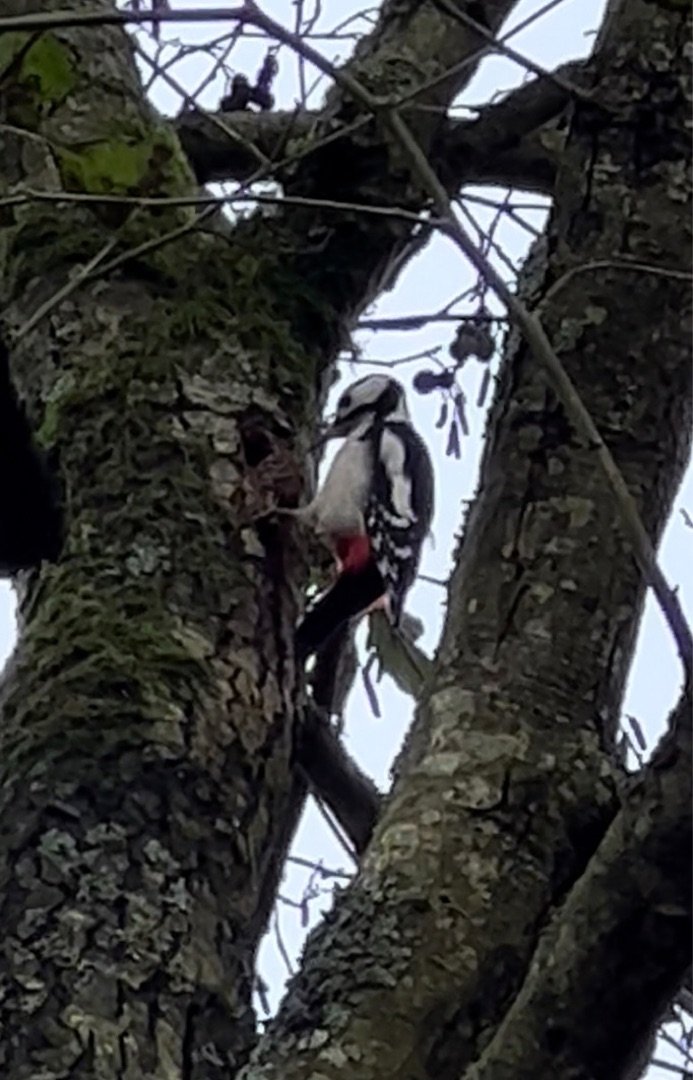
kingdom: Animalia
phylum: Chordata
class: Aves
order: Piciformes
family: Picidae
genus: Dendrocopos
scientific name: Dendrocopos major
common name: Stor flagspætte
